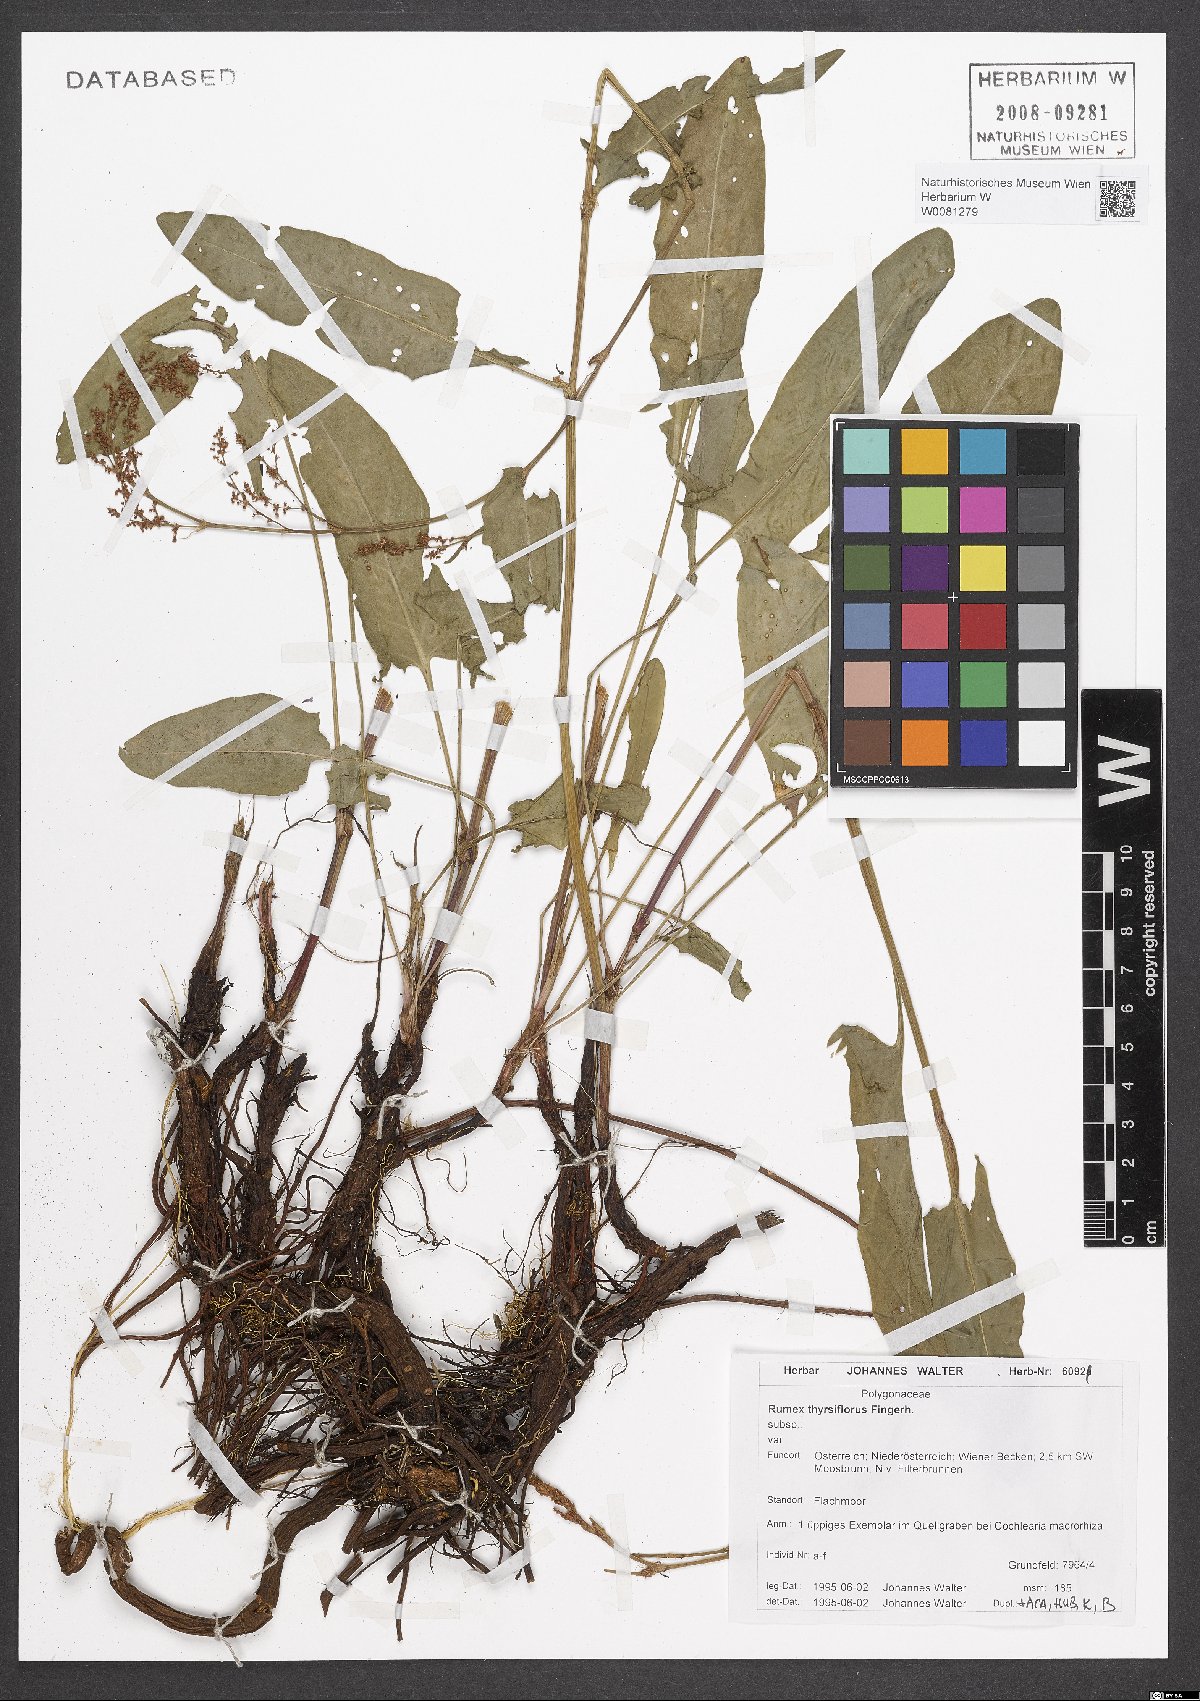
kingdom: Plantae
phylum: Tracheophyta
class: Magnoliopsida
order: Caryophyllales
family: Polygonaceae
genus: Rumex
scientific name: Rumex thyrsiflorus
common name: Garden sorrel
